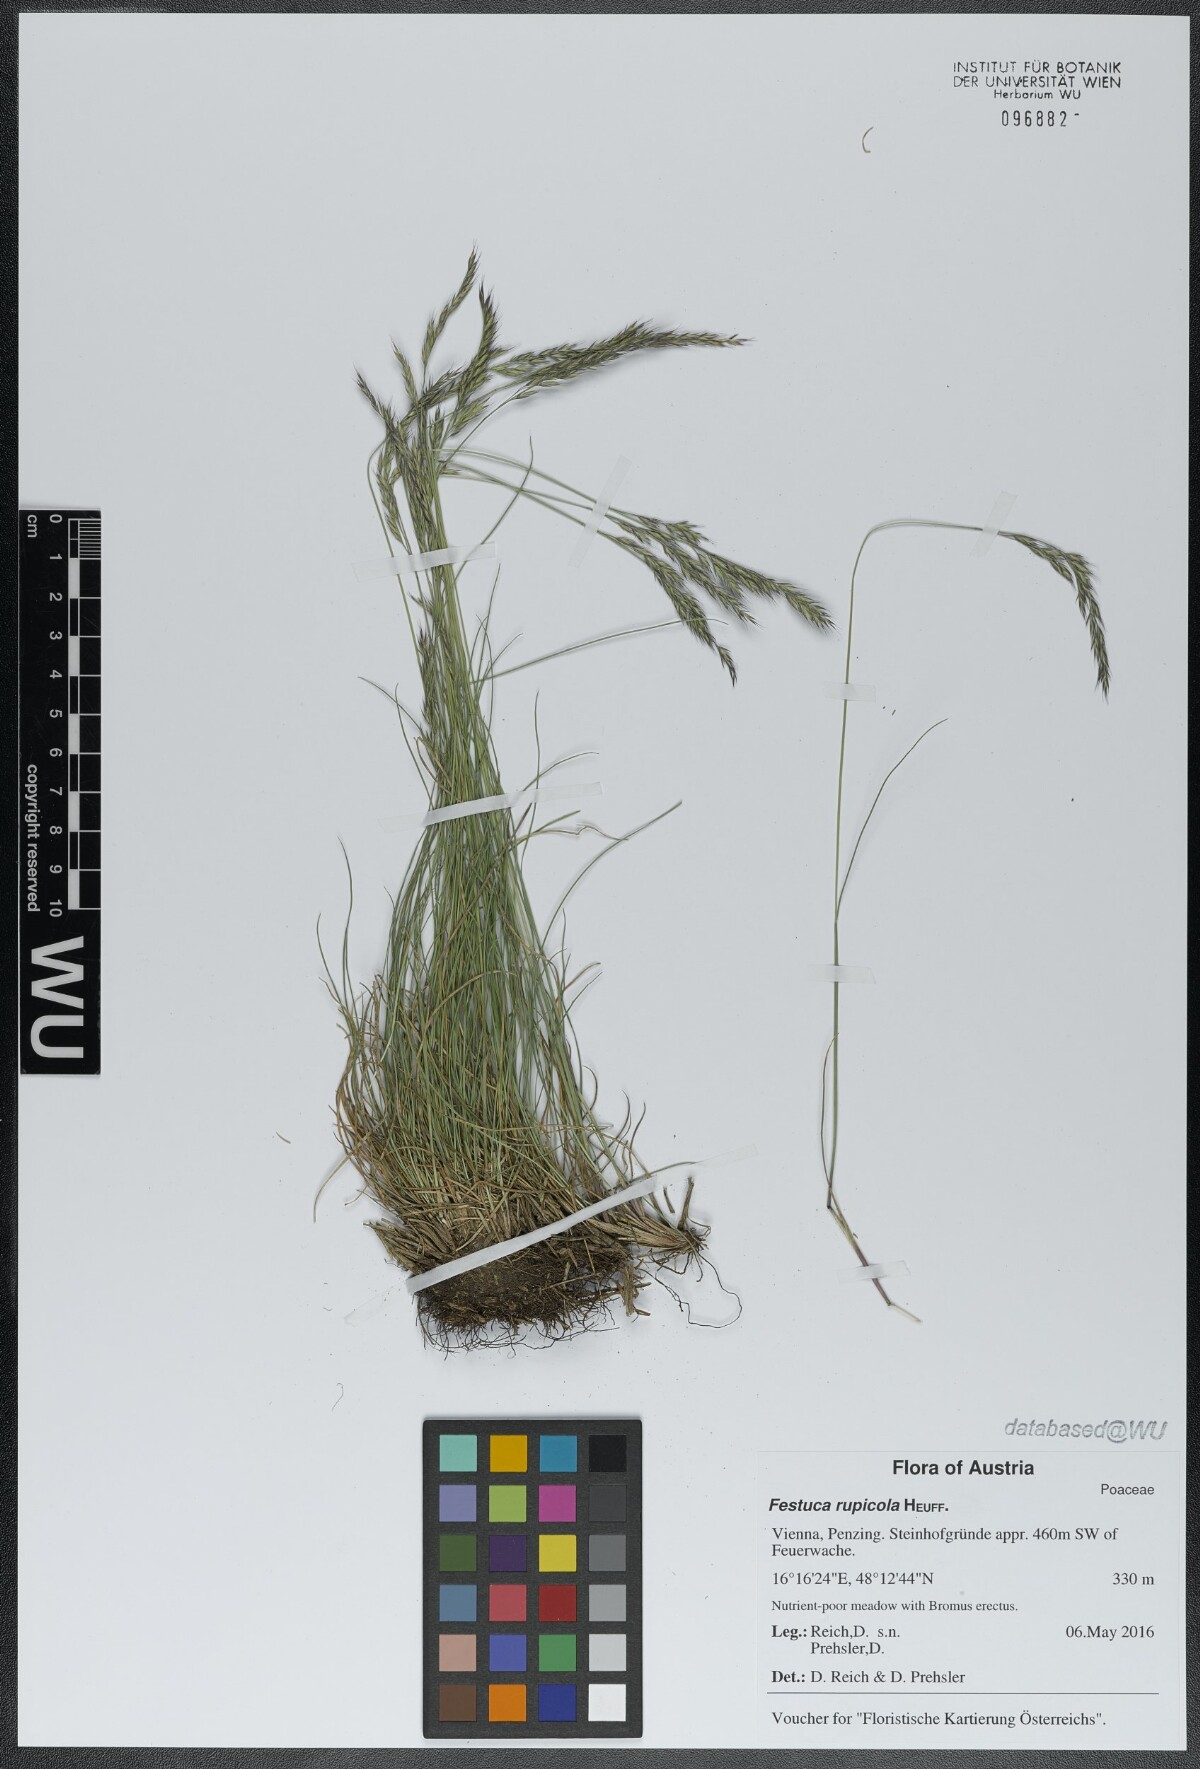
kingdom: Plantae
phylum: Tracheophyta
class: Liliopsida
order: Poales
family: Poaceae
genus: Festuca
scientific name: Festuca rupicola
